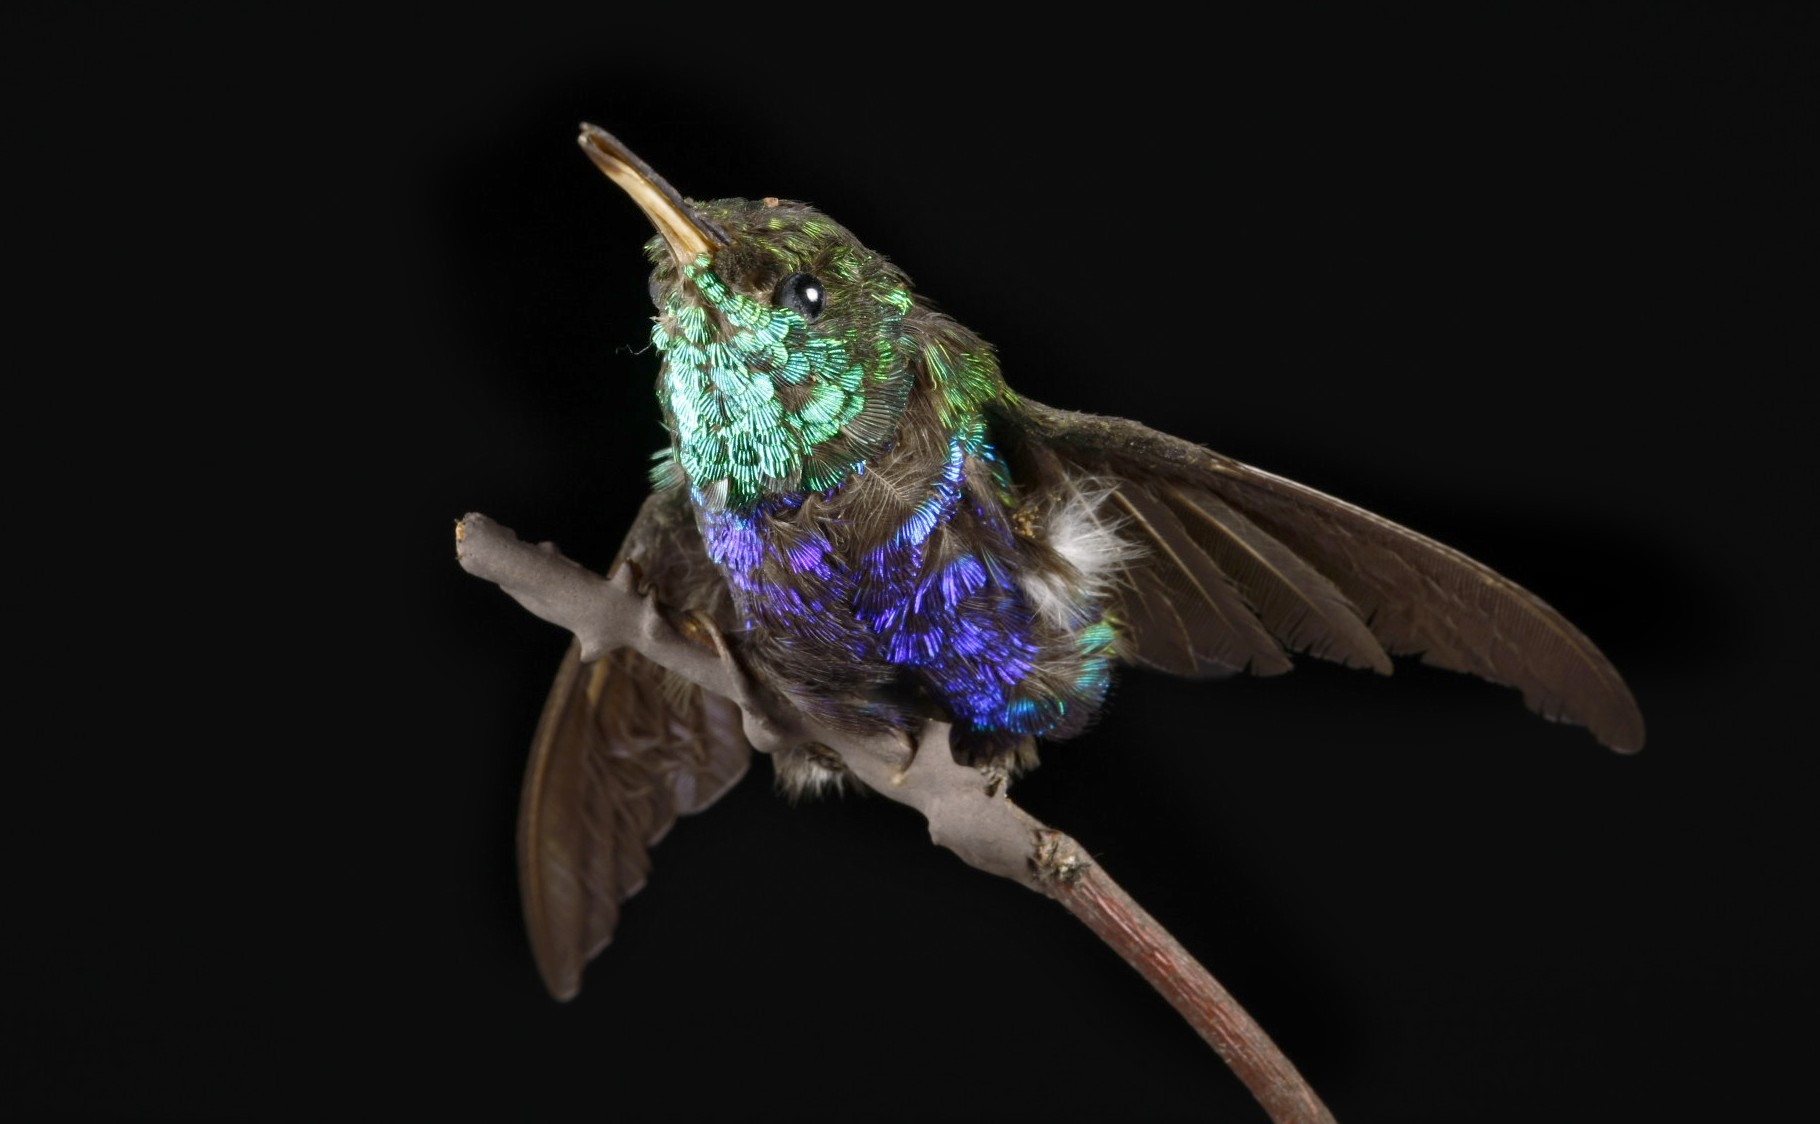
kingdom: Animalia
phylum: Chordata
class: Aves
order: Apodiformes
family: Trochilidae
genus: Chlorestes
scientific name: Chlorestes julie
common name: Violet-bellied hummingbird
